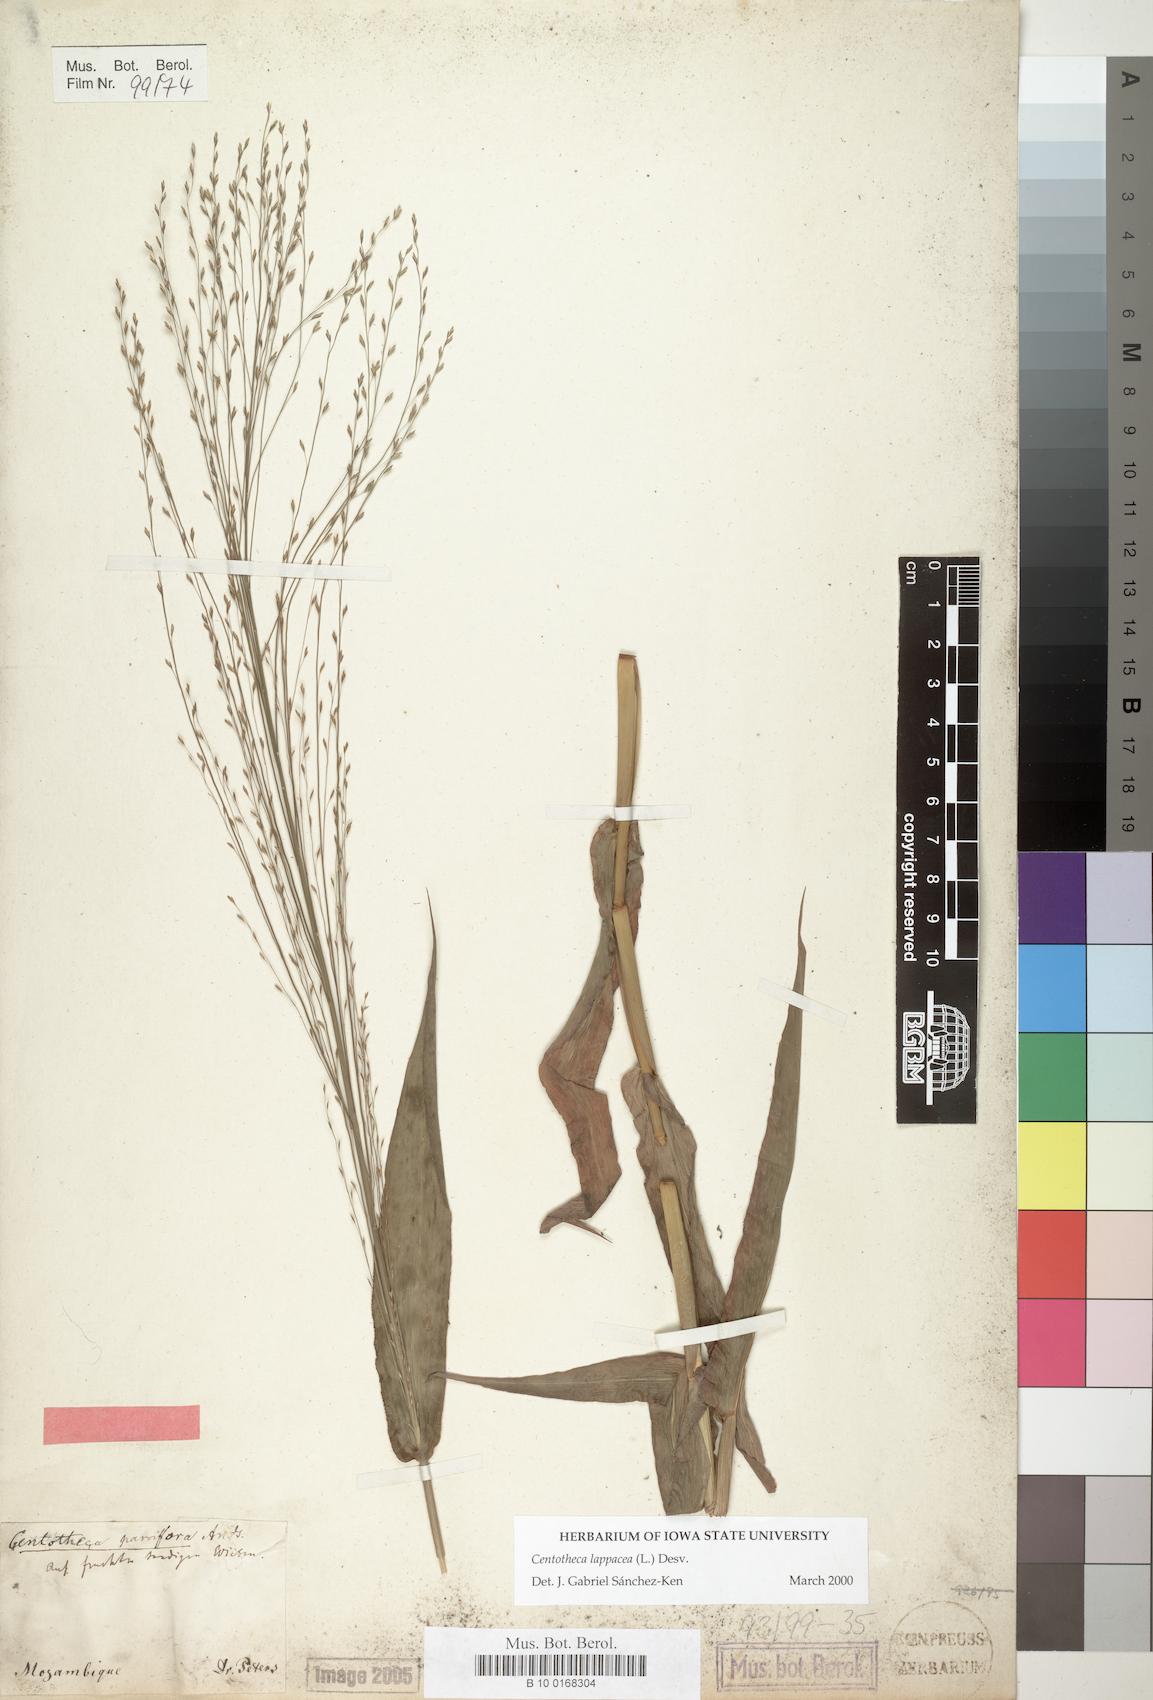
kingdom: Plantae
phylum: Tracheophyta
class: Liliopsida
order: Poales
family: Poaceae
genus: Centotheca
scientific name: Centotheca lappacea
